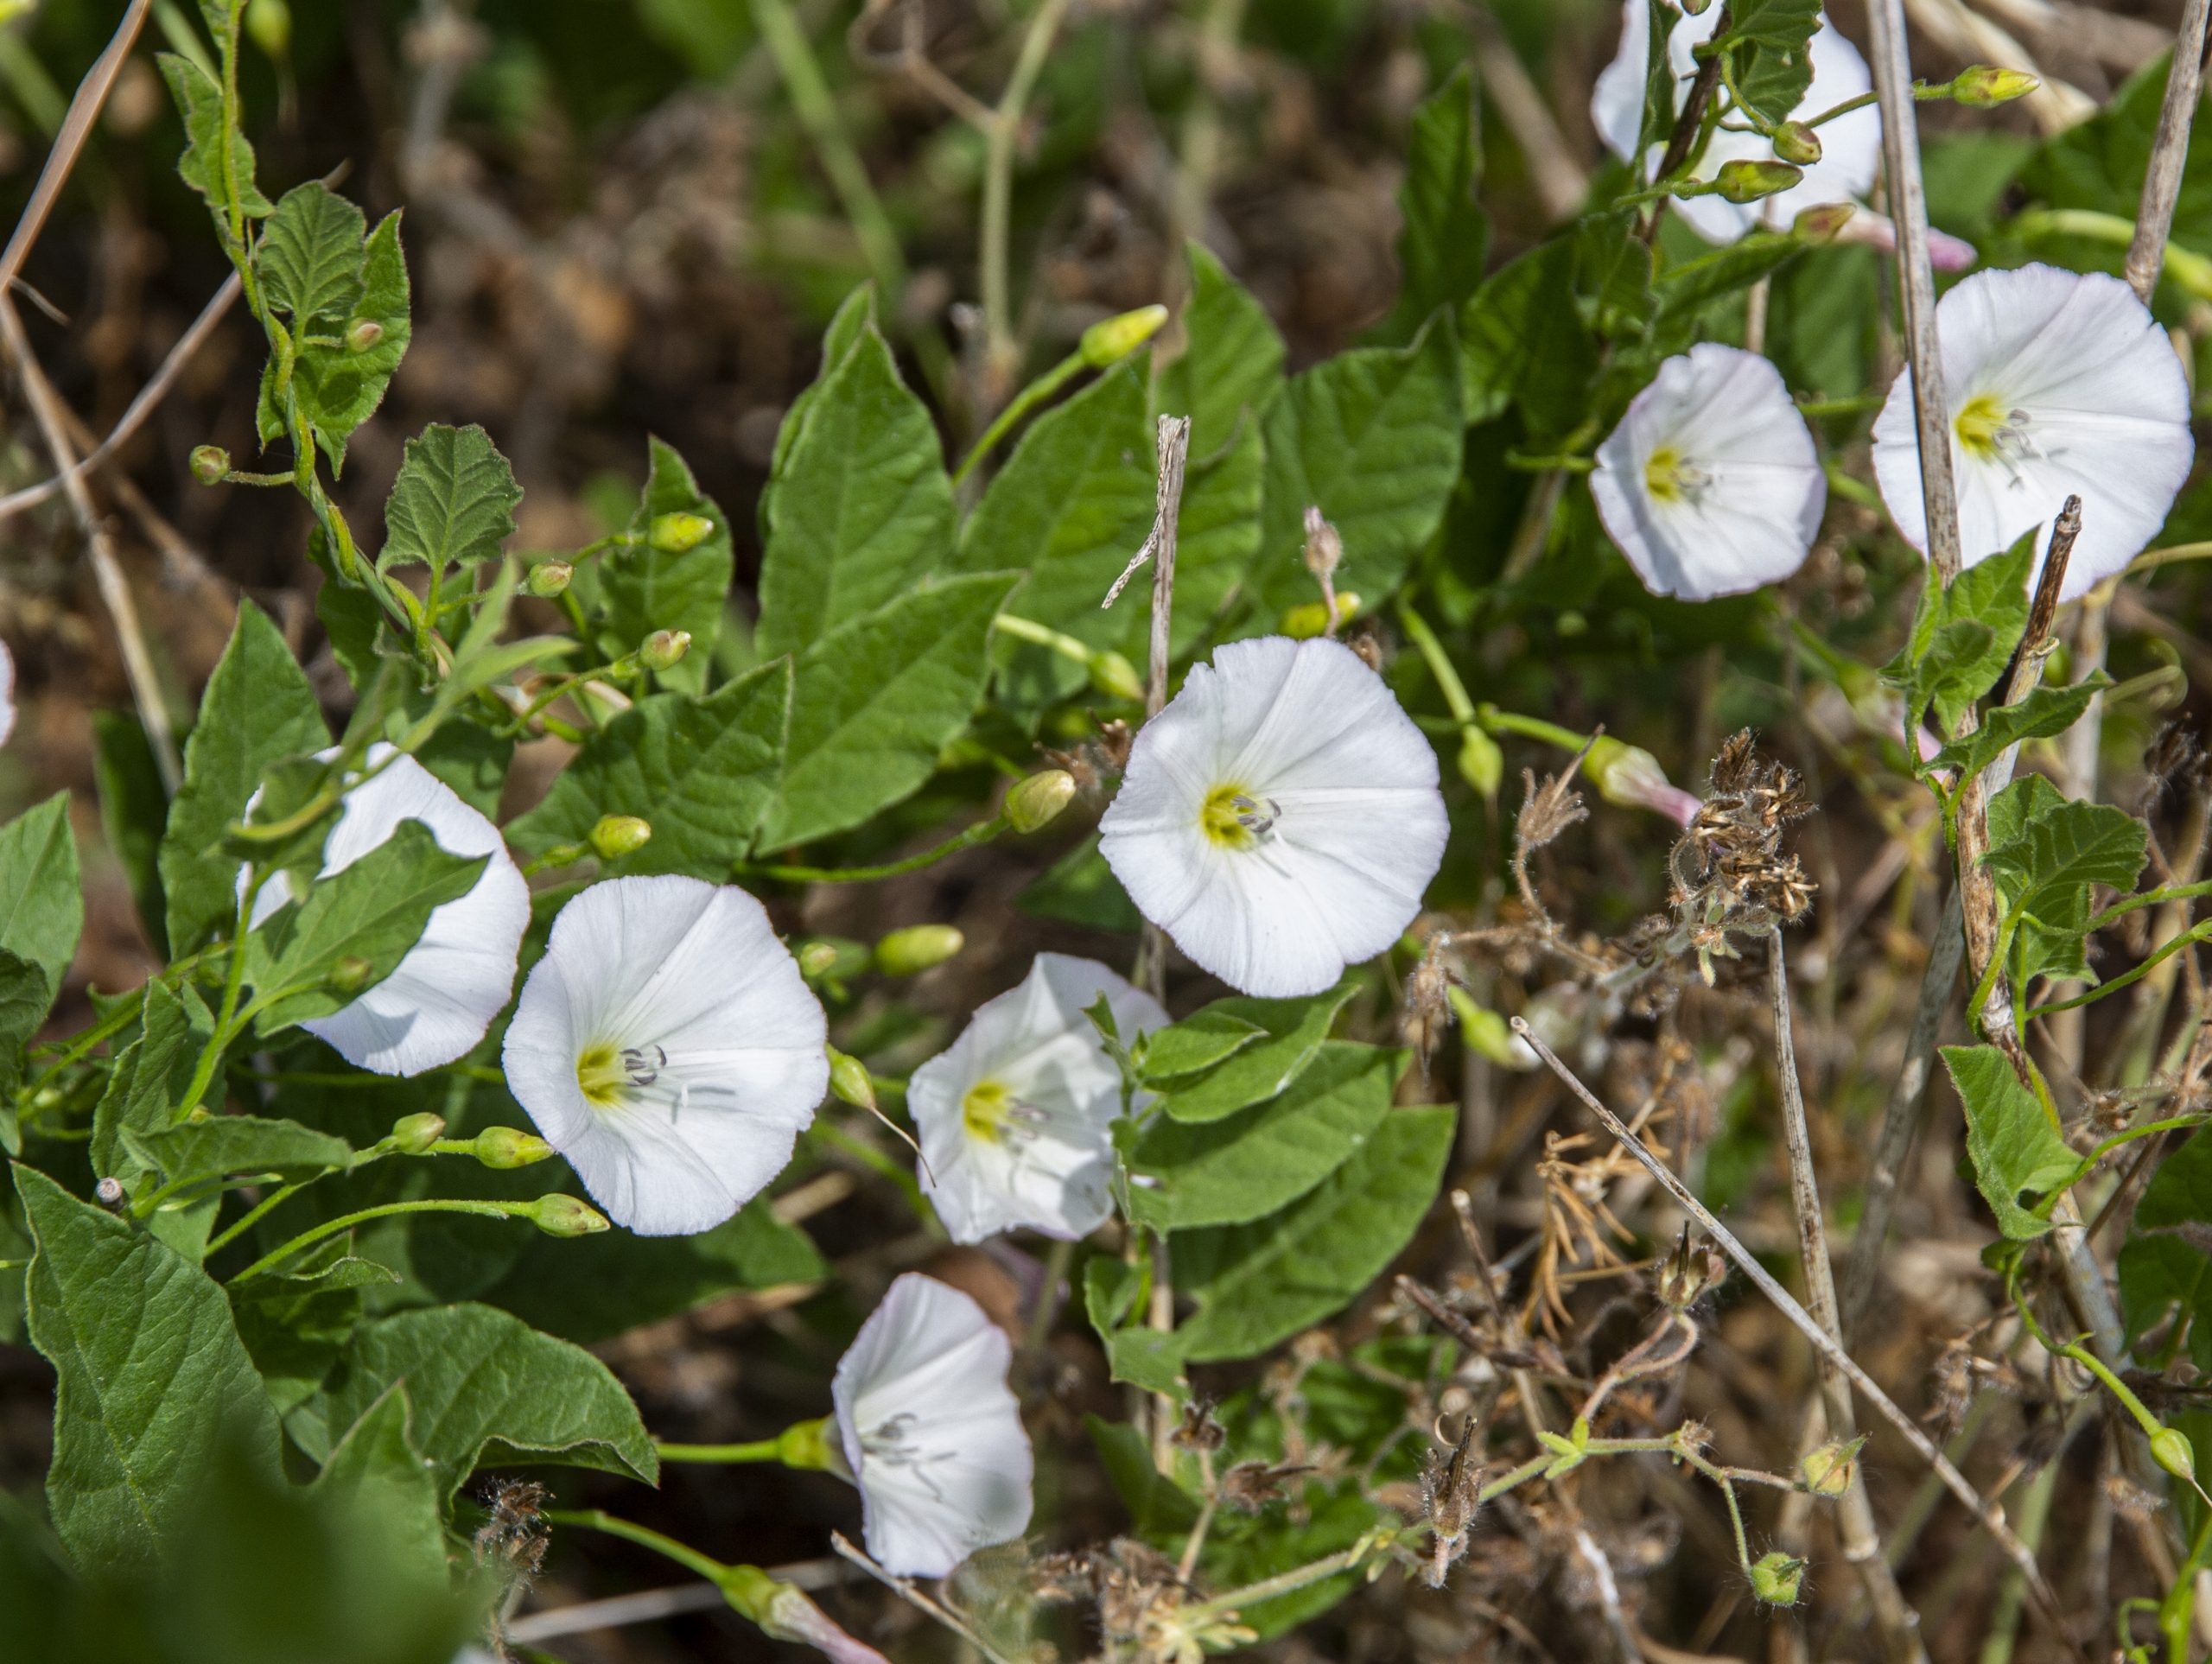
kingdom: Plantae
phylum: Tracheophyta
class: Magnoliopsida
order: Solanales
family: Convolvulaceae
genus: Convolvulus
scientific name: Convolvulus arvensis
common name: Ager-snerle
